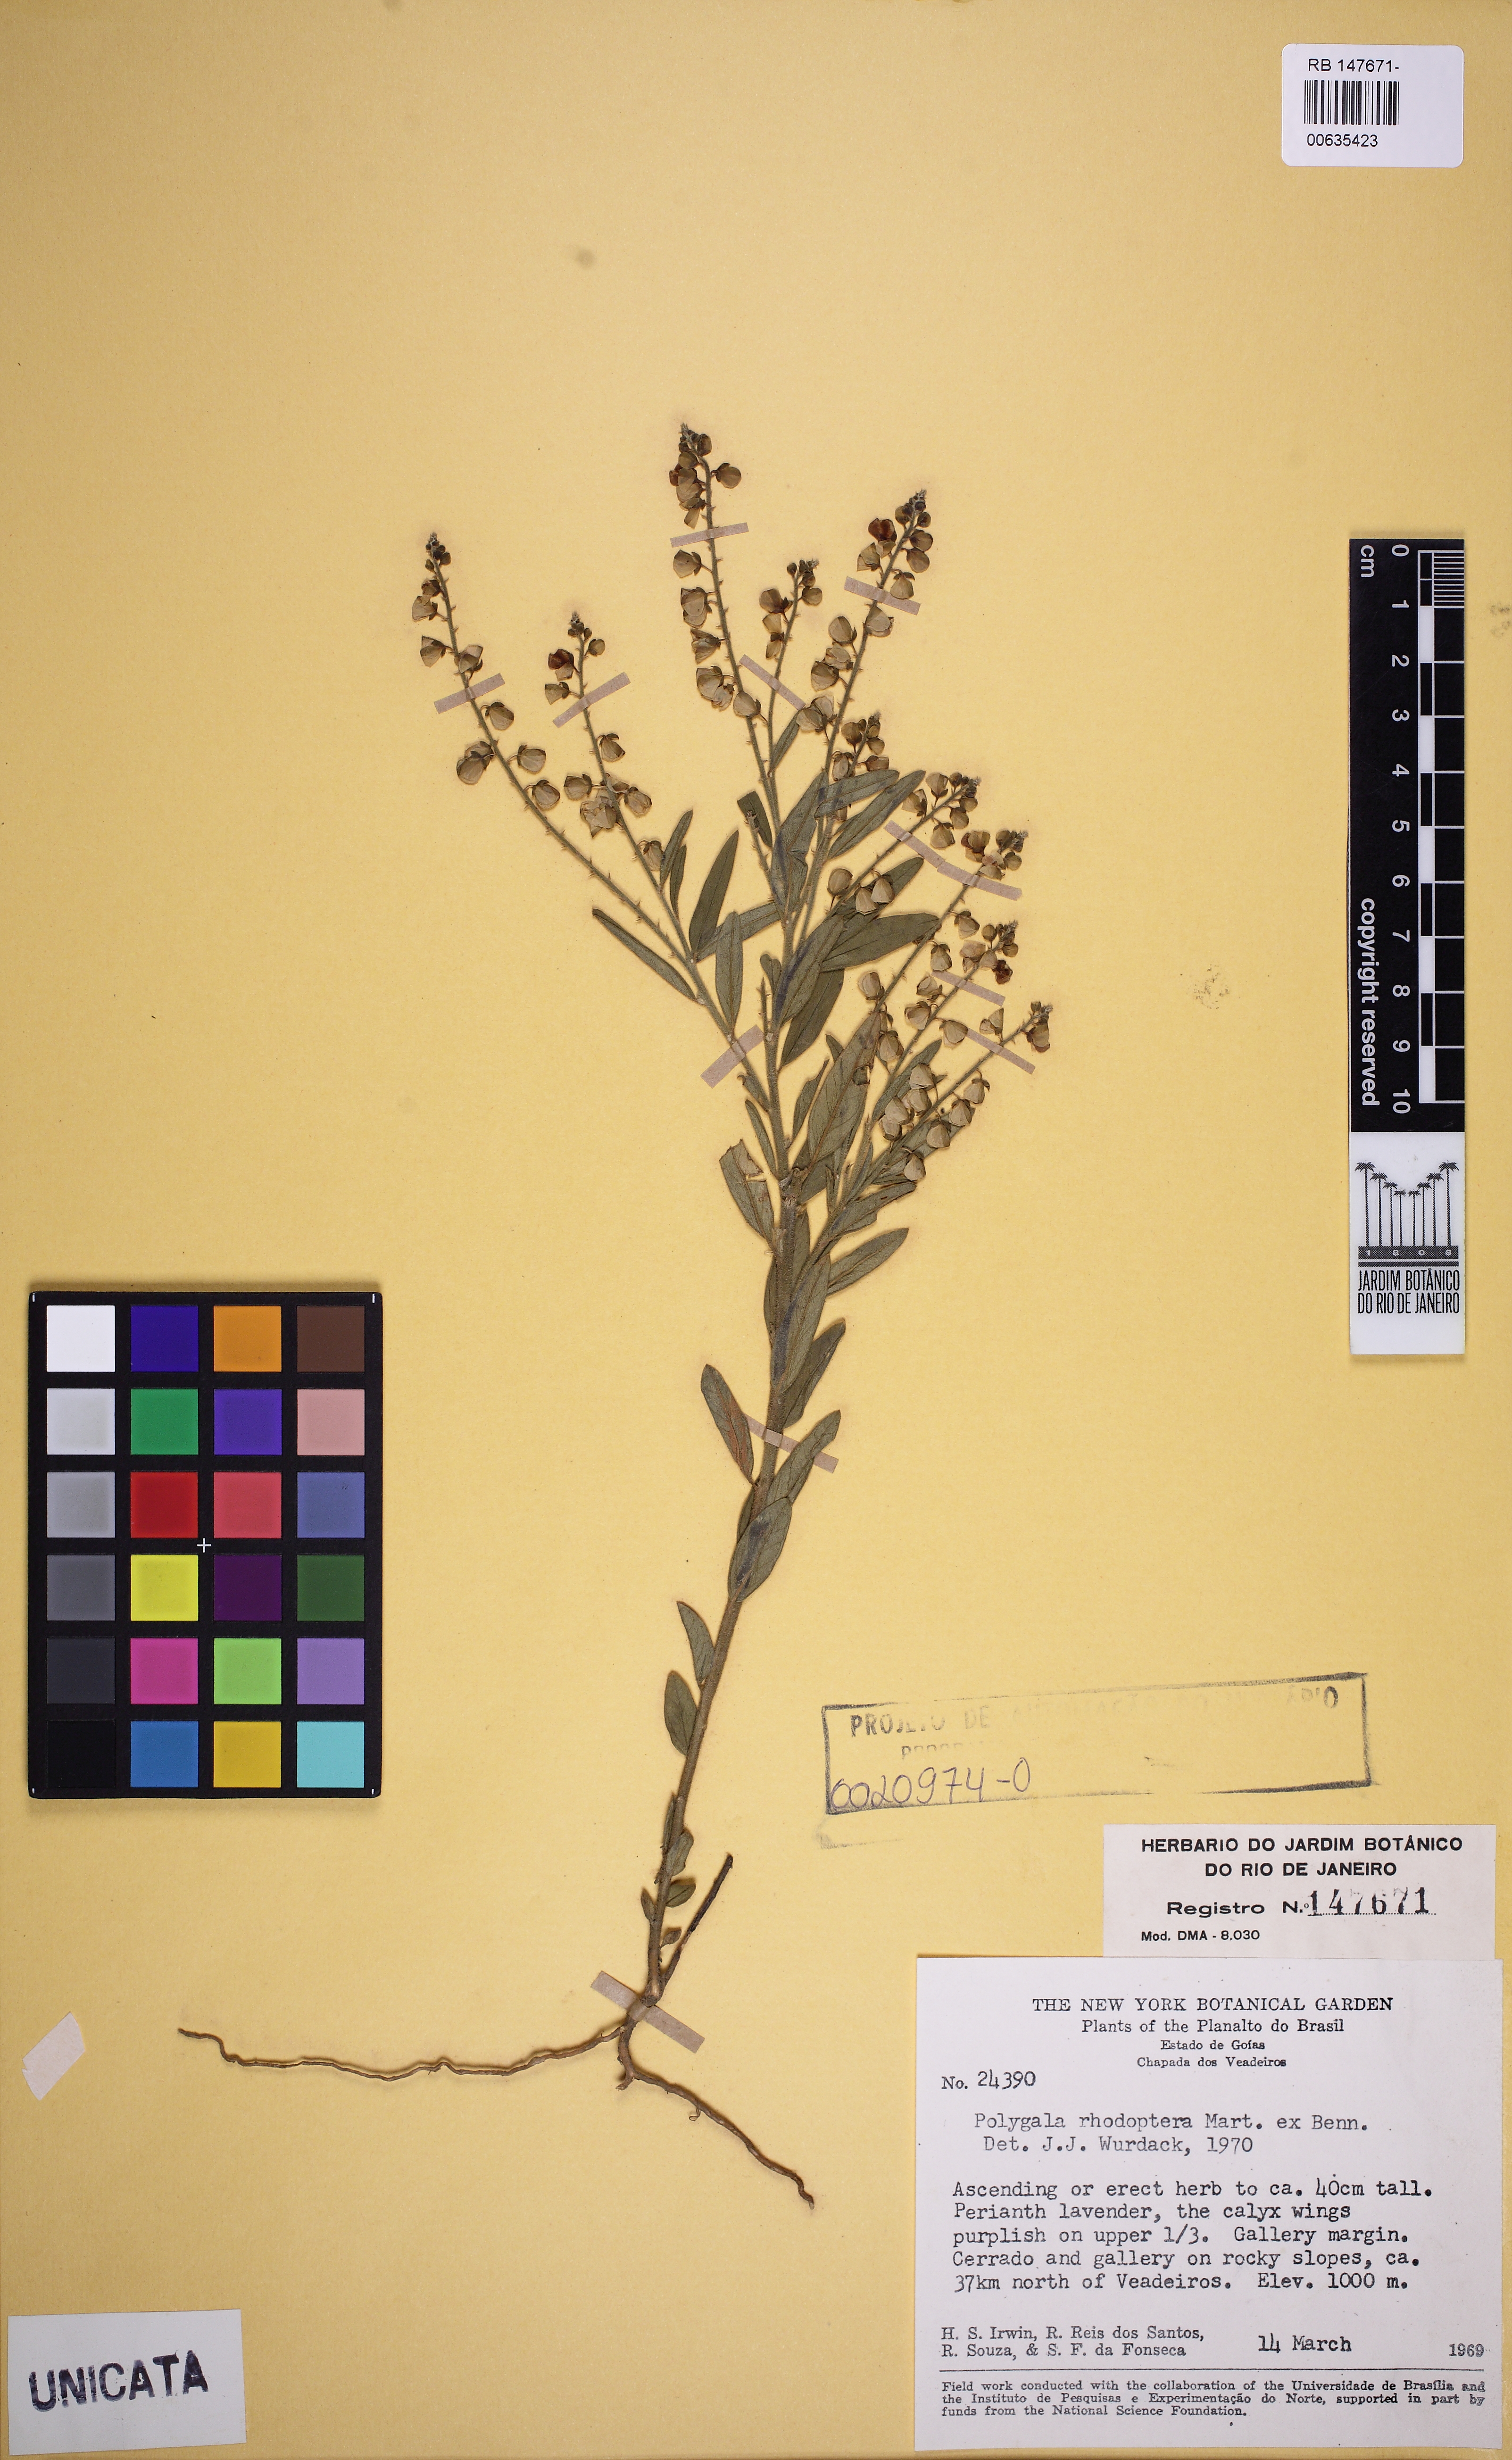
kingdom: Plantae
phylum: Tracheophyta
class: Magnoliopsida
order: Fabales
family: Polygalaceae
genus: Asemeia
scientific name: Asemeia rhodoptera
